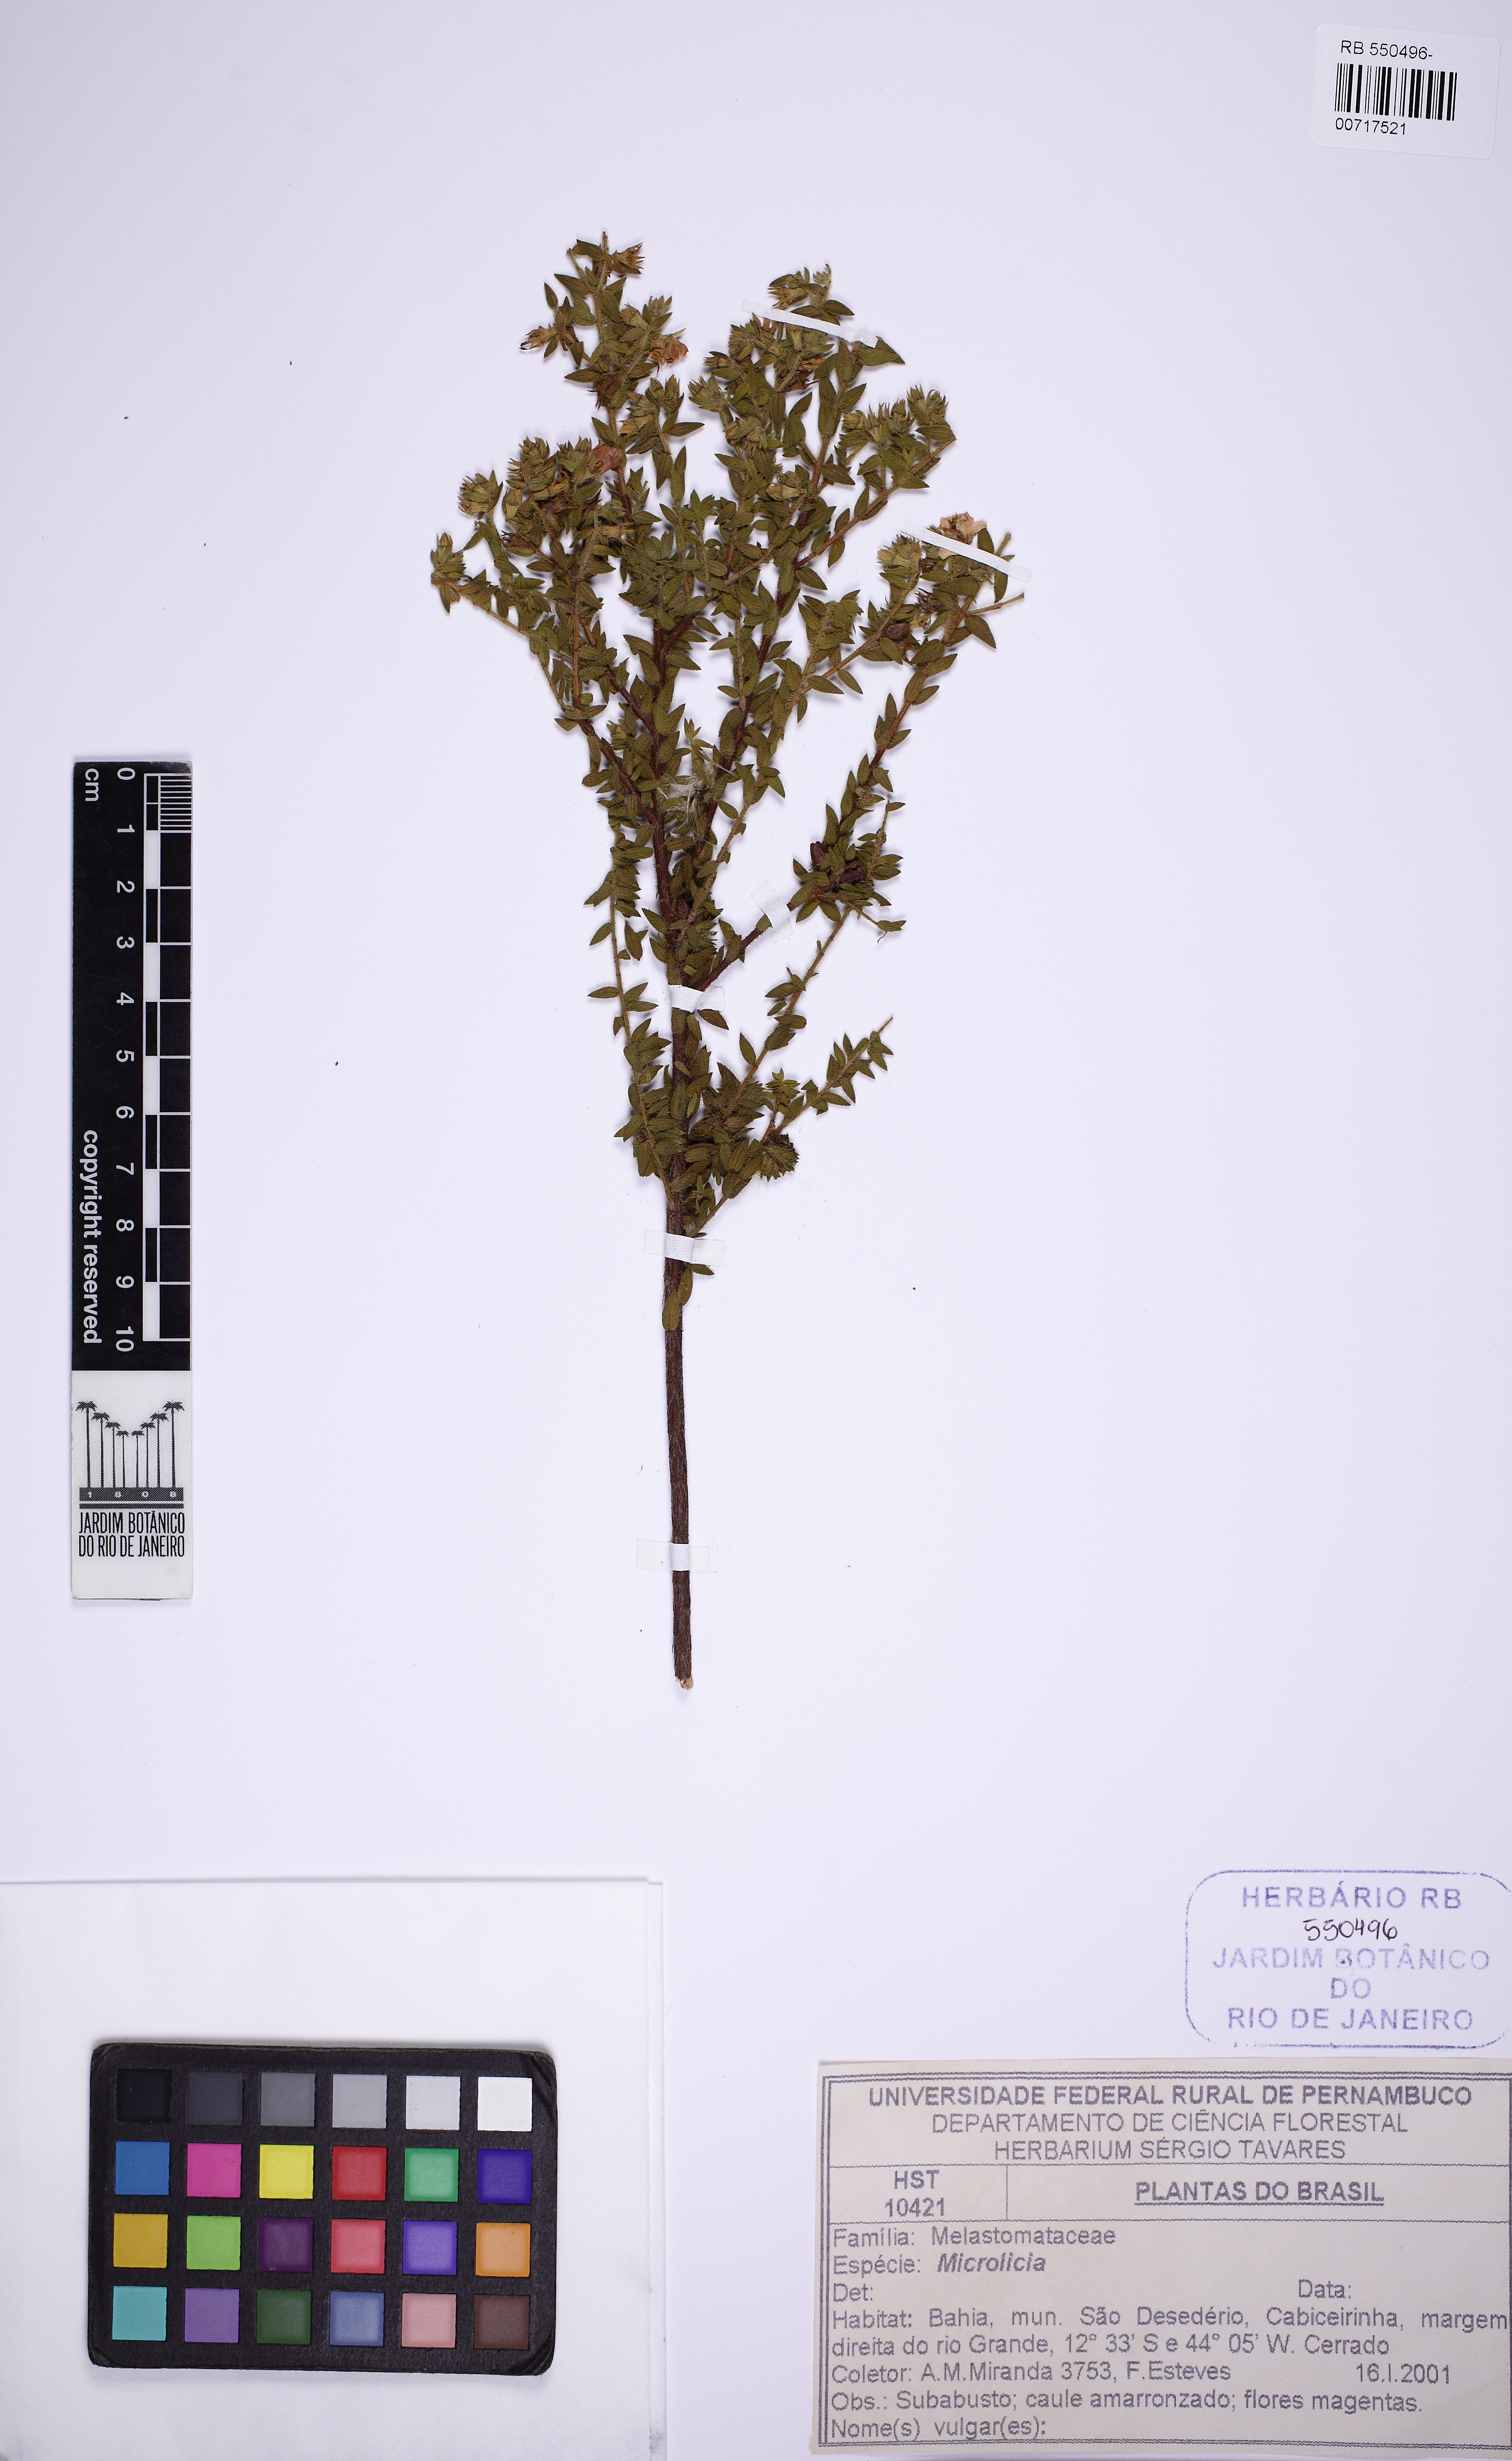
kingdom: Plantae
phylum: Tracheophyta
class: Magnoliopsida
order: Myrtales
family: Melastomataceae
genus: Microlicia
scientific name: Microlicia hirsuta
